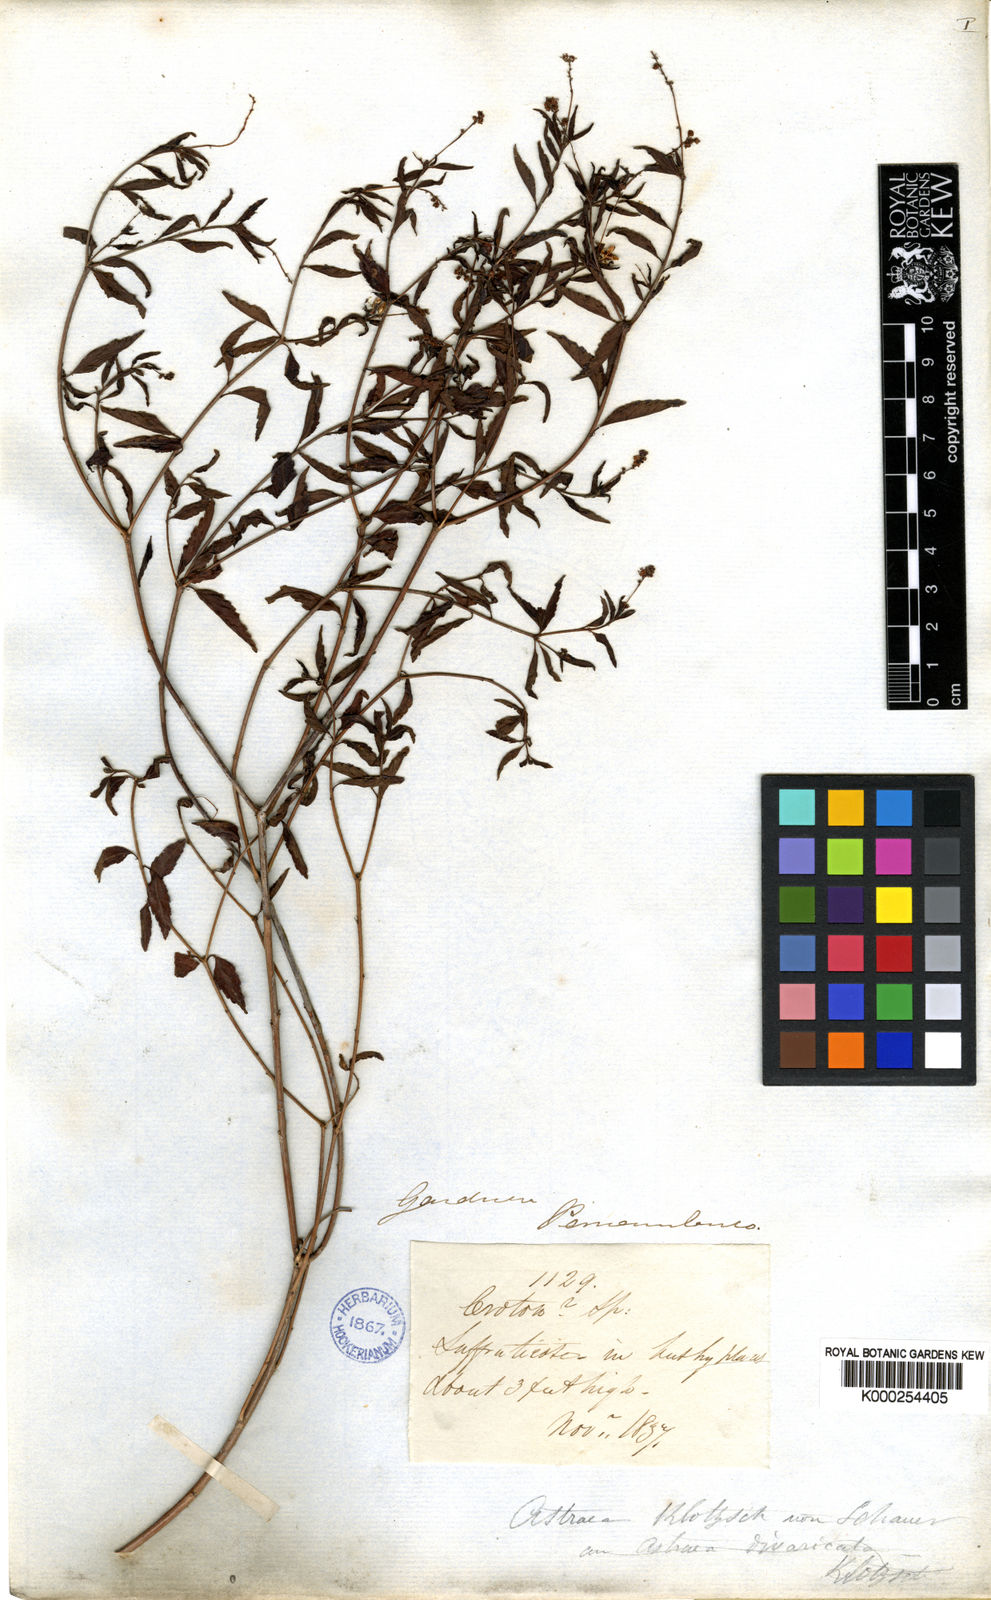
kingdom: Plantae
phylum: Tracheophyta
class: Magnoliopsida
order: Malpighiales
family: Euphorbiaceae
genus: Croton
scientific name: Croton
